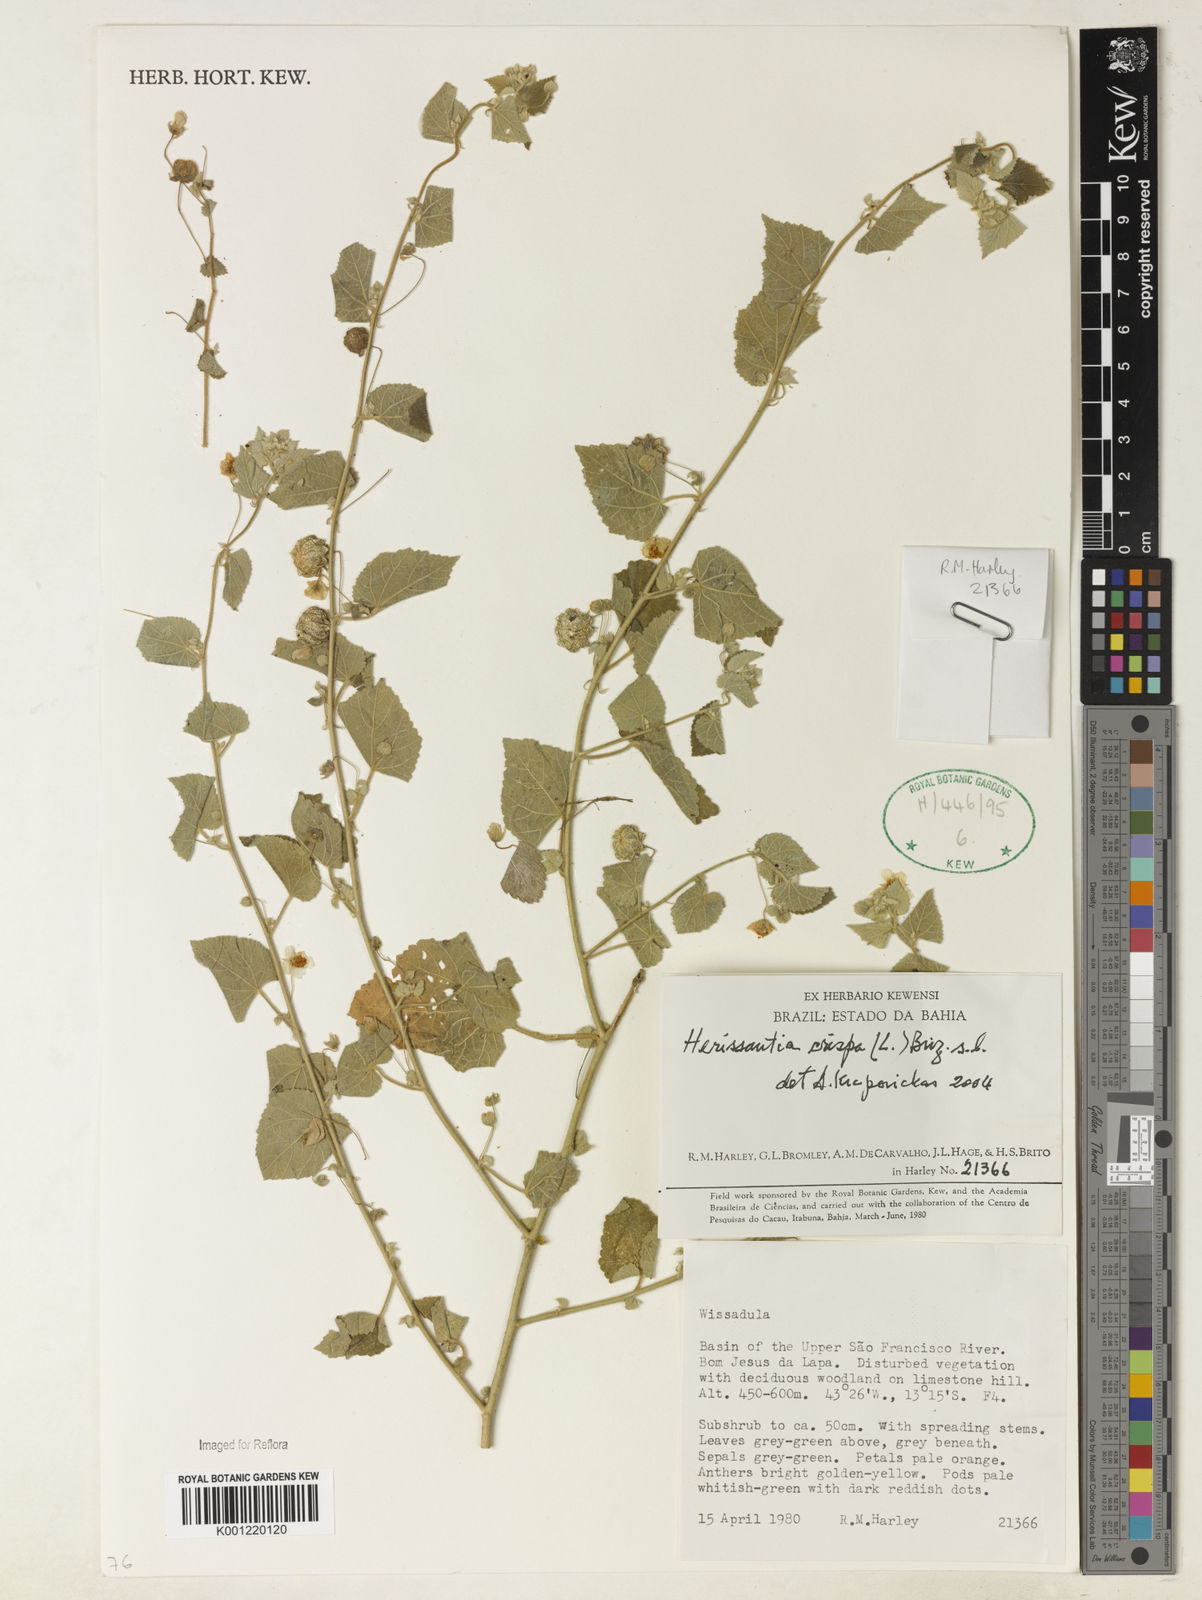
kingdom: Plantae
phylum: Tracheophyta
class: Magnoliopsida
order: Malvales
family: Malvaceae
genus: Herissantia
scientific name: Herissantia crispa
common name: Bladdermallow
